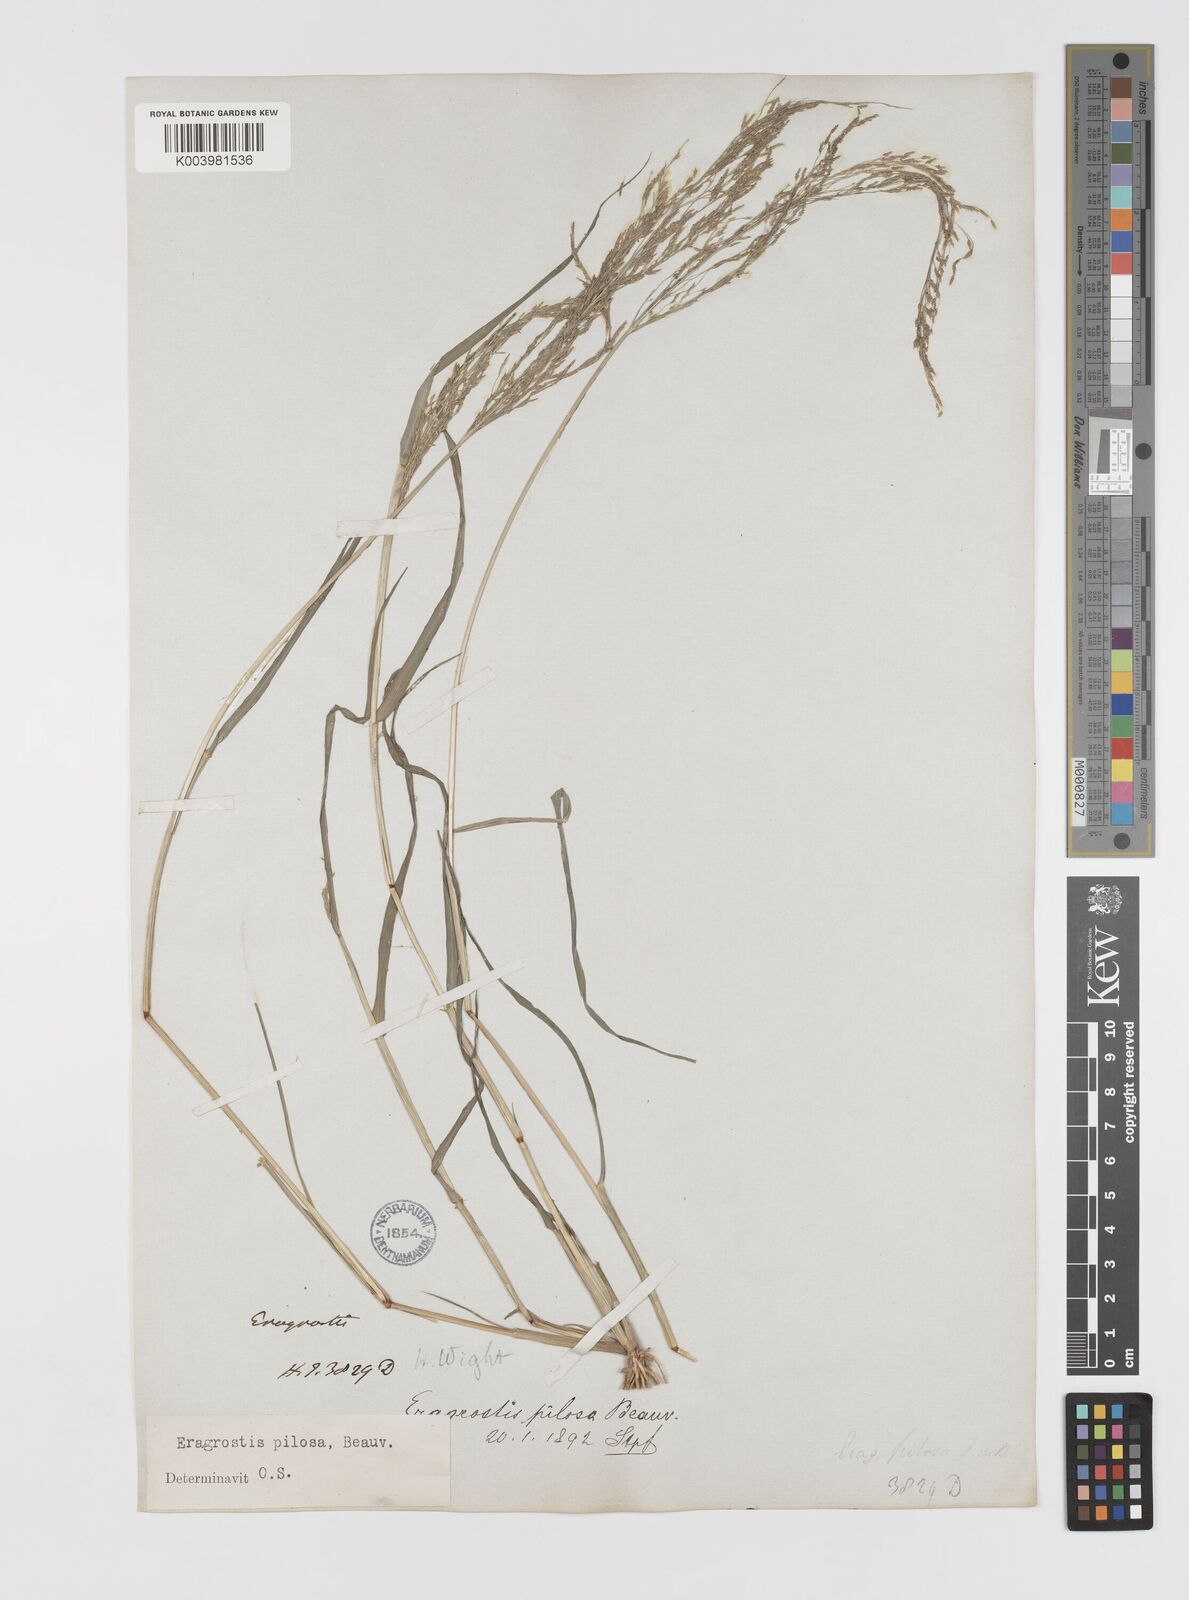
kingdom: Plantae
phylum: Tracheophyta
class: Liliopsida
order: Poales
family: Poaceae
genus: Eragrostis
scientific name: Eragrostis pilosa
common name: Indian lovegrass
